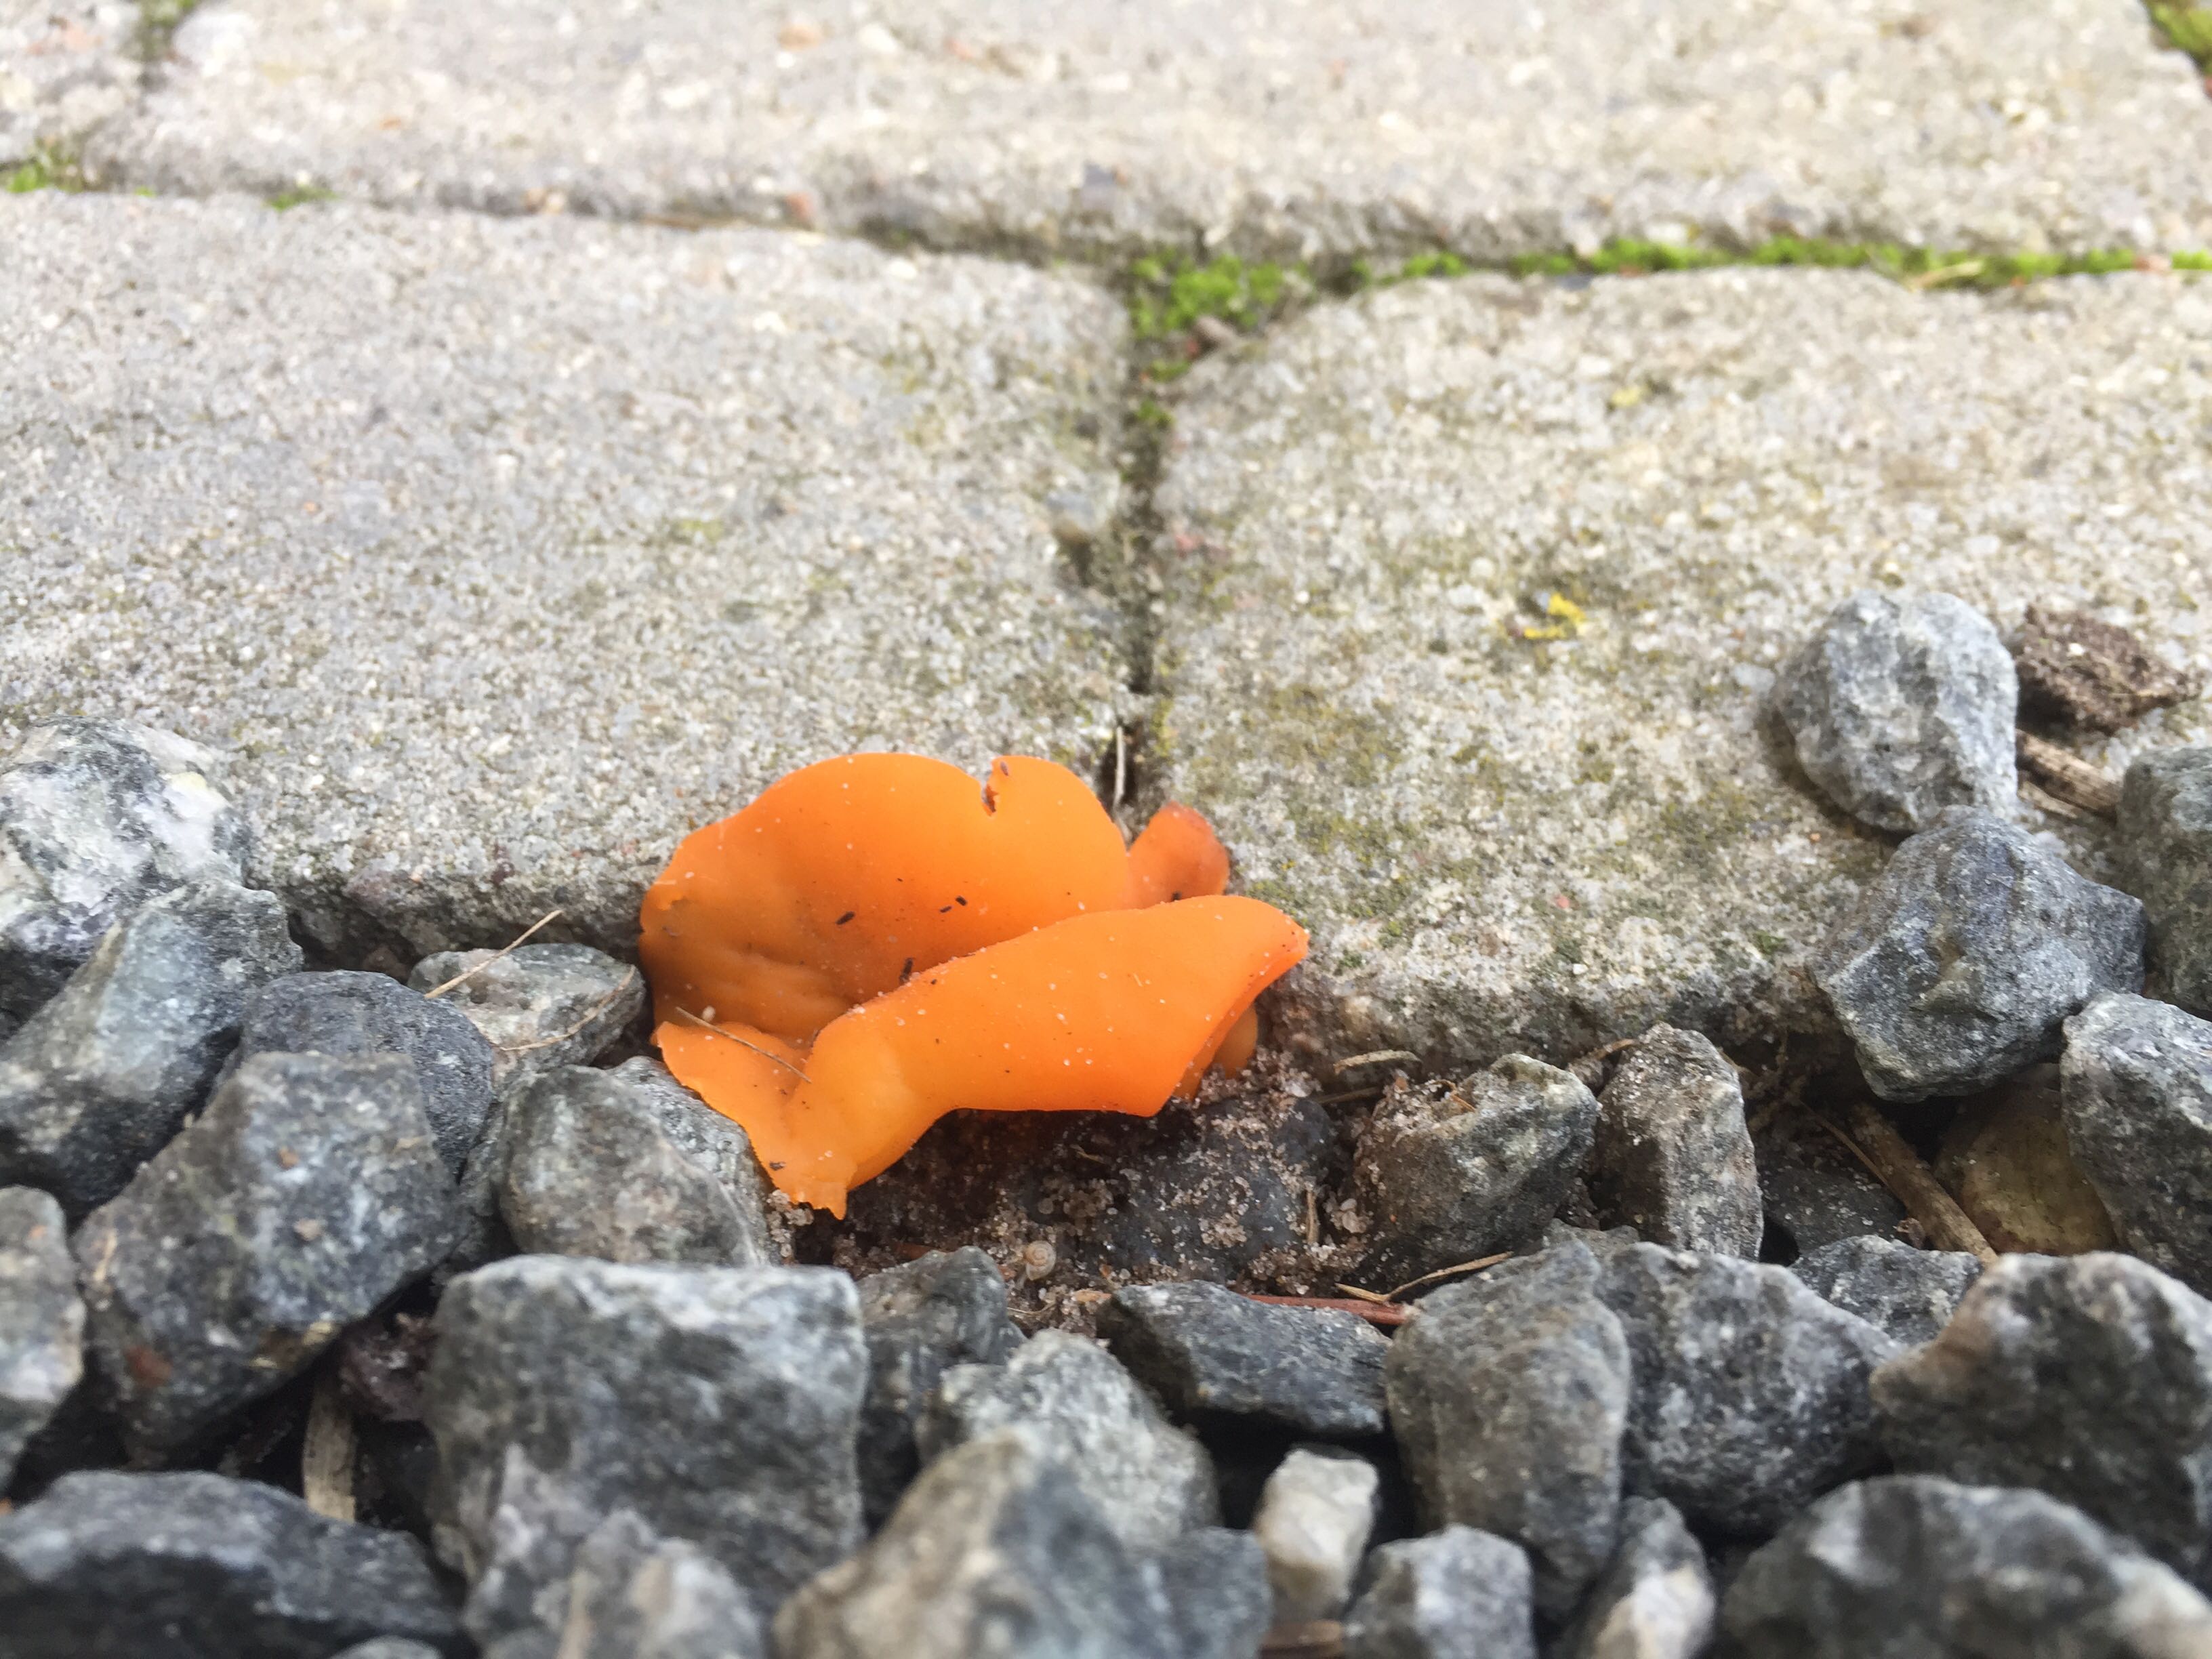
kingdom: Fungi
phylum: Ascomycota
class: Pezizomycetes
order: Pezizales
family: Pyronemataceae
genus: Aleuria
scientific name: Aleuria aurantia
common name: almindelig orangebæger
